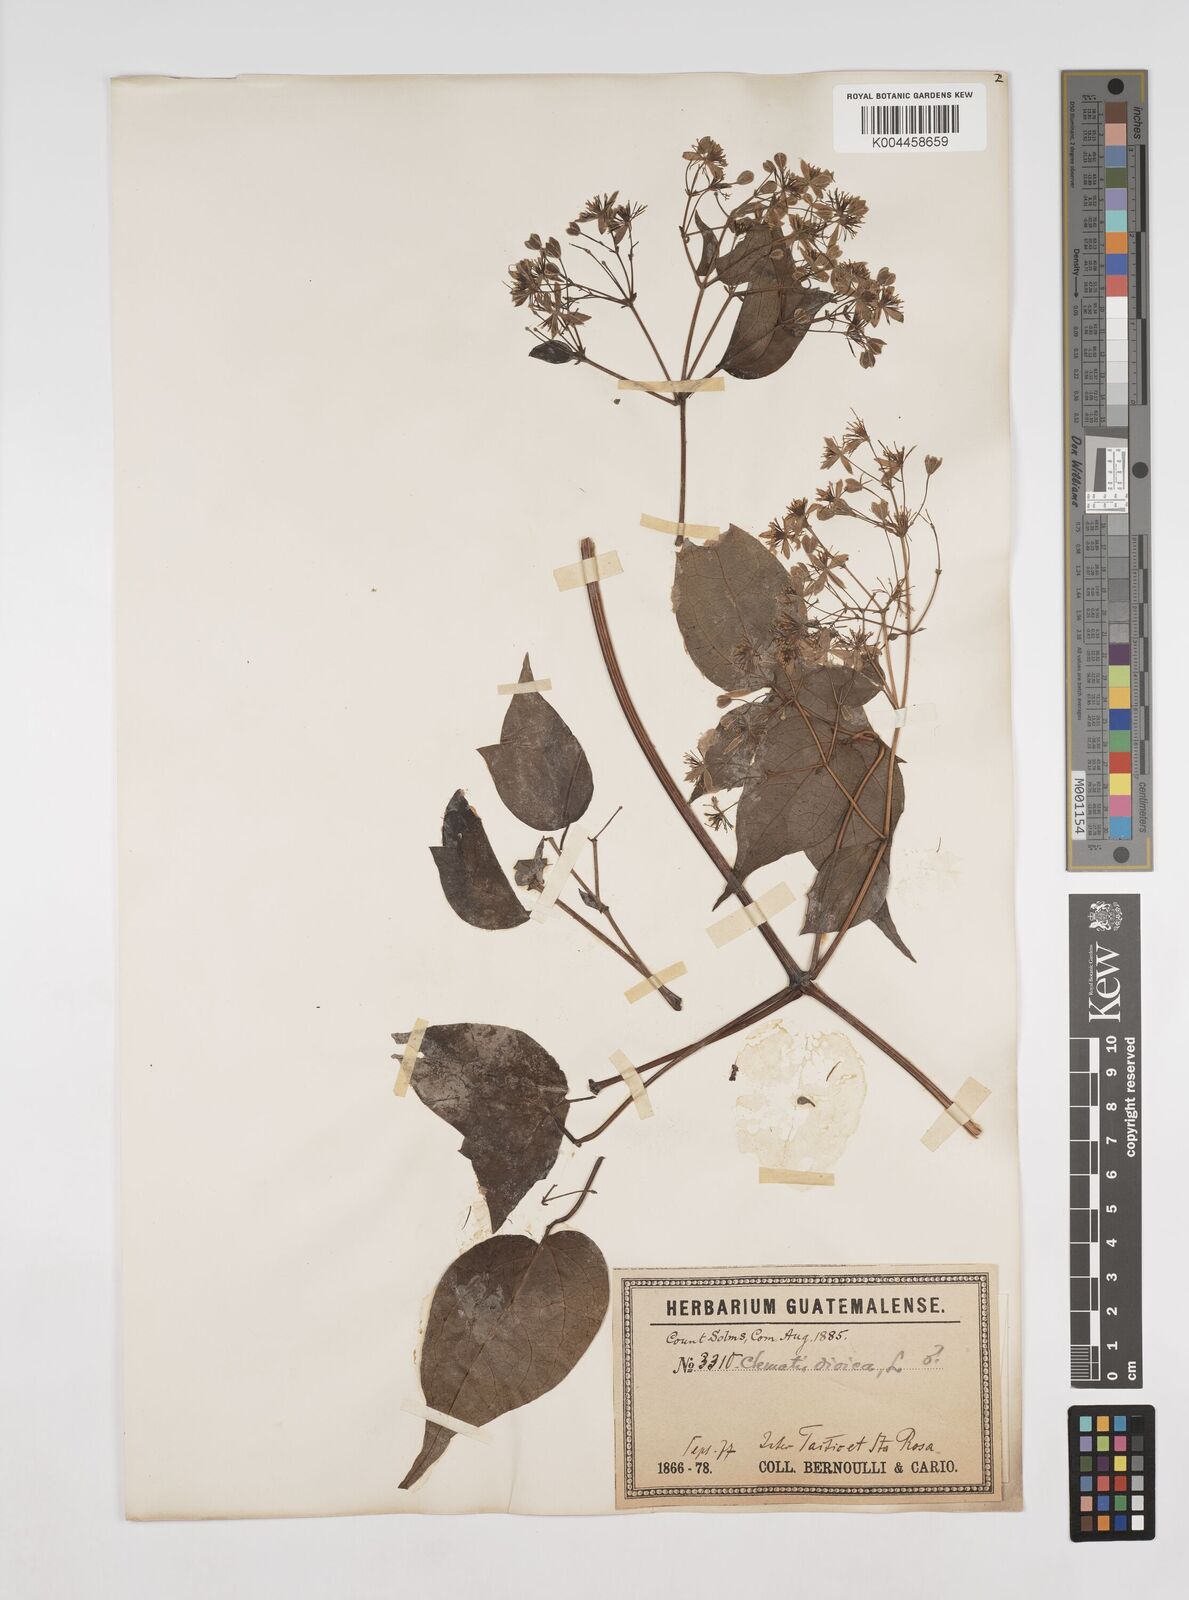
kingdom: Plantae
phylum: Tracheophyta
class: Magnoliopsida
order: Ranunculales
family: Ranunculaceae
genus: Clematis
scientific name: Clematis dioica
